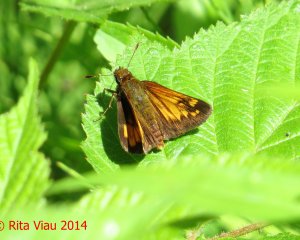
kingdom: Animalia
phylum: Arthropoda
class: Insecta
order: Lepidoptera
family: Hesperiidae
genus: Lon
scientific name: Lon hobomok
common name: Hobomok Skipper
